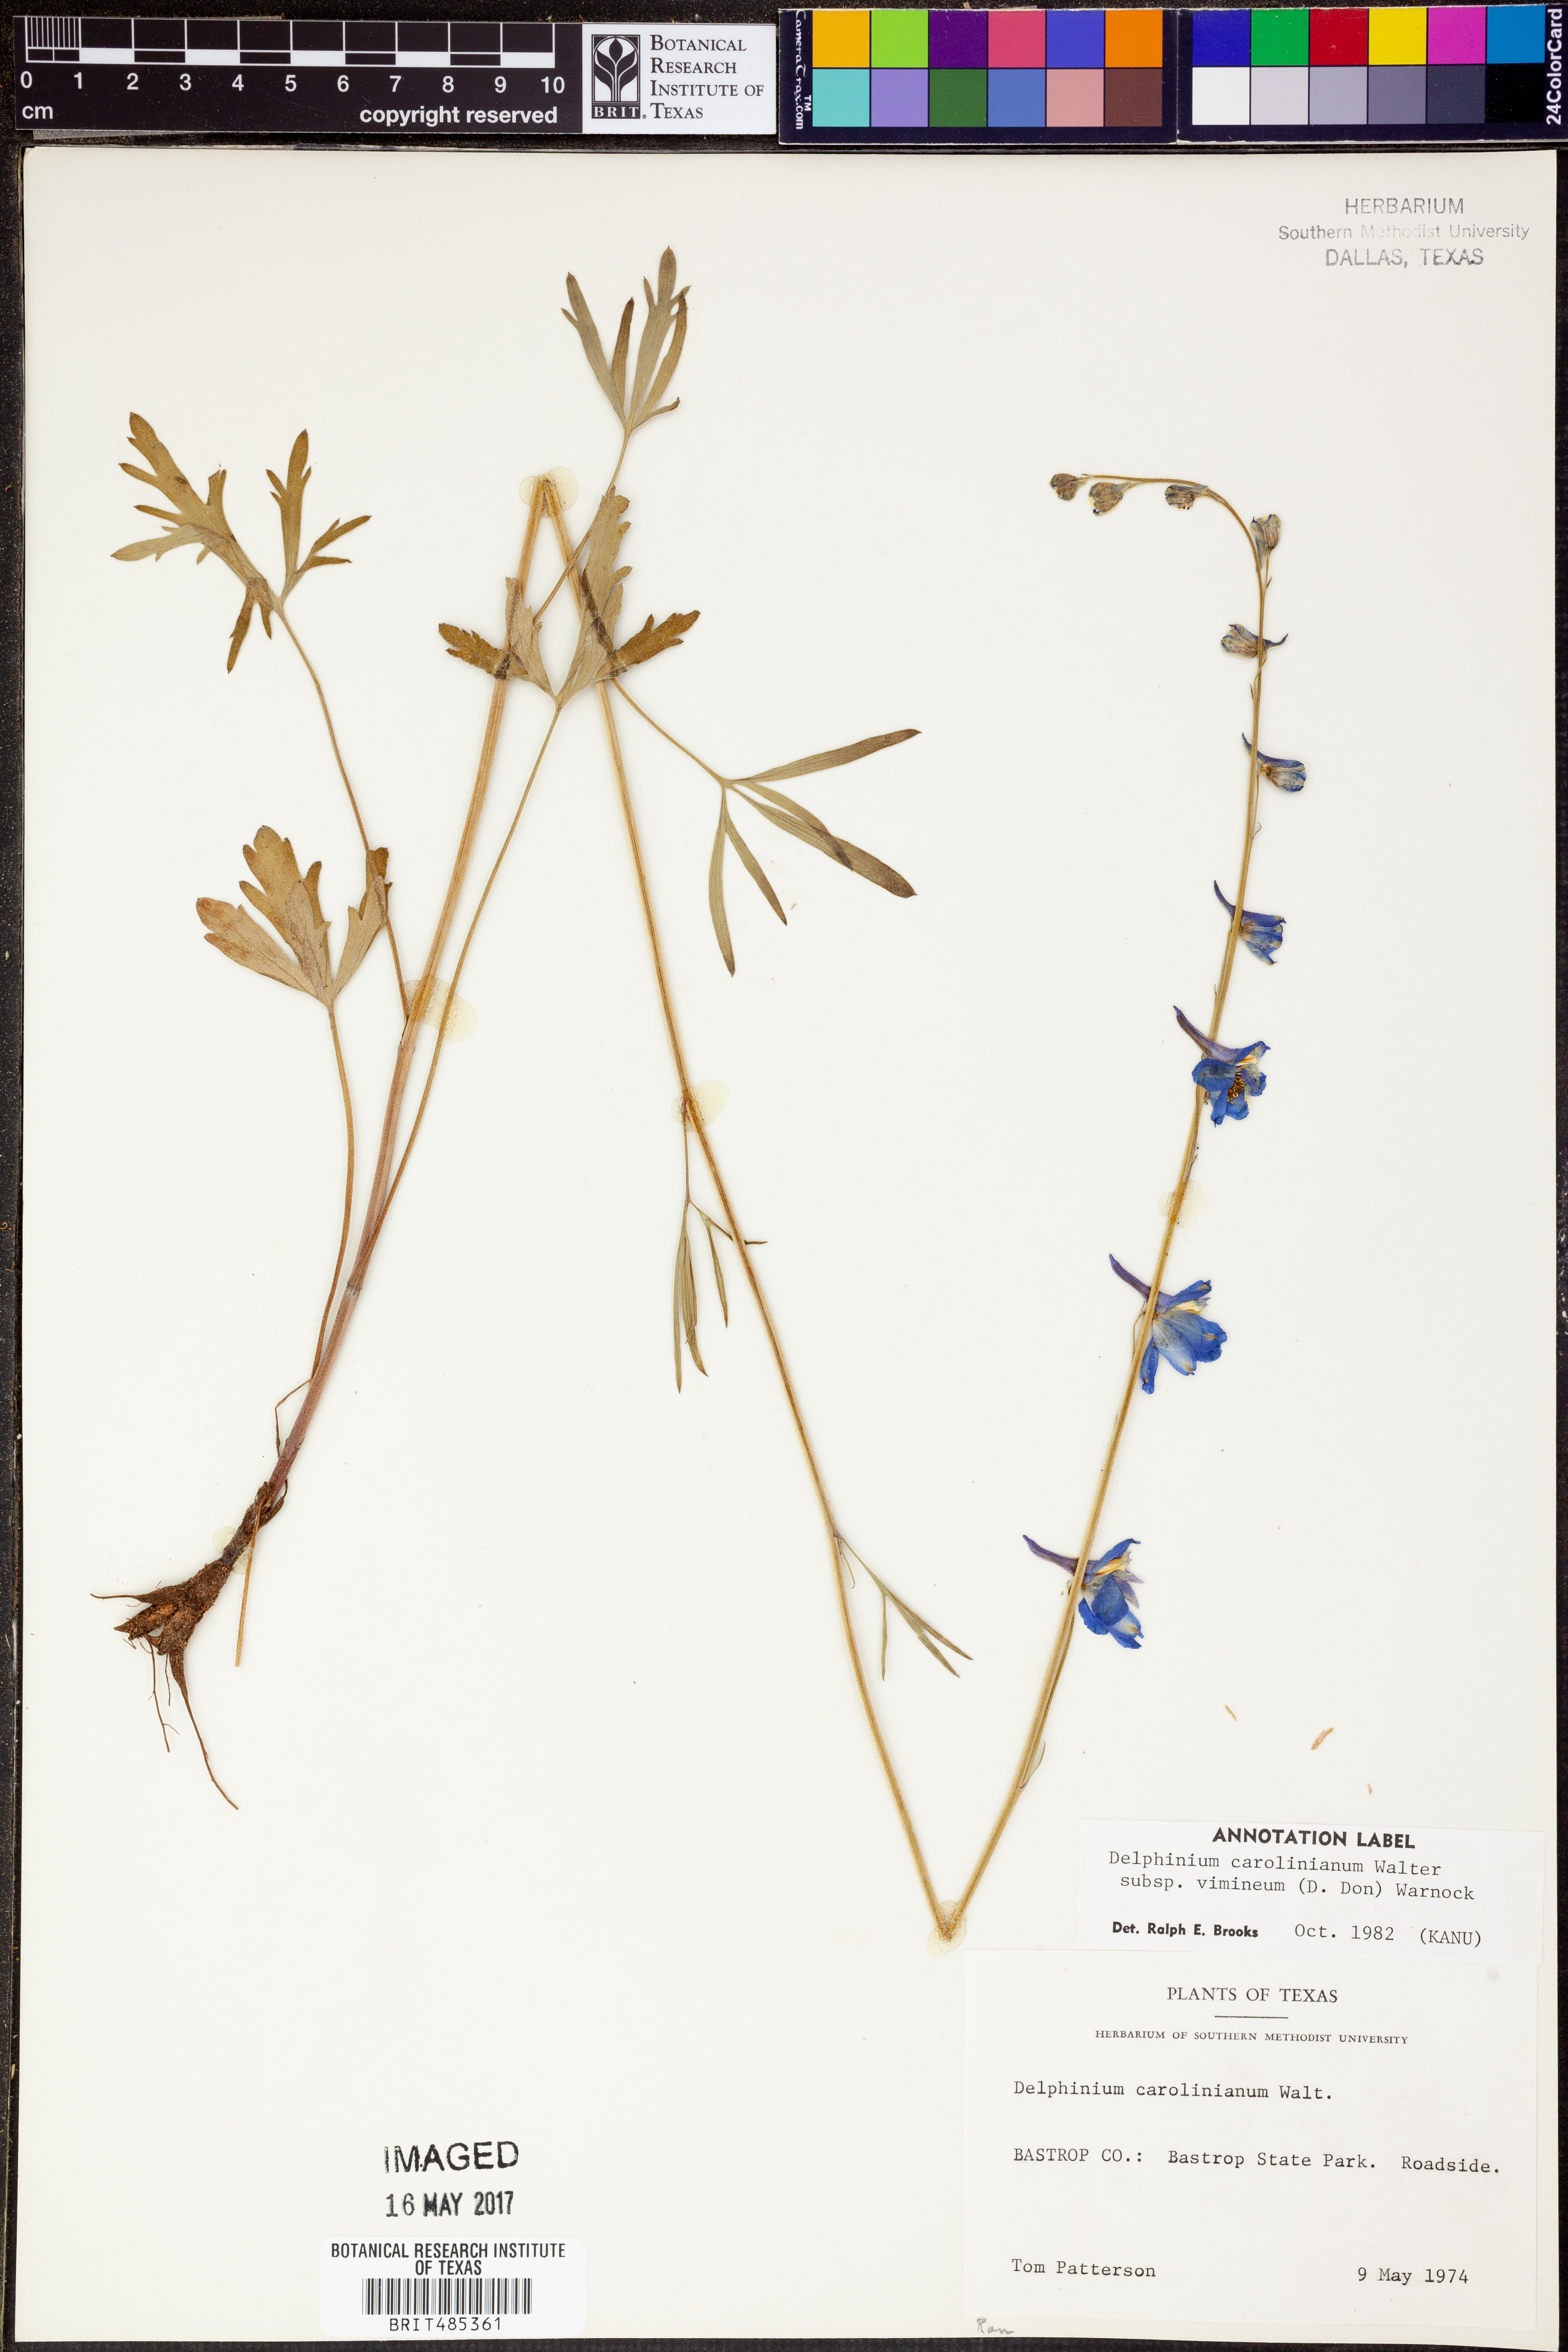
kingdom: Plantae
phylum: Tracheophyta
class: Magnoliopsida
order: Ranunculales
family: Ranunculaceae
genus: Delphinium
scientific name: Delphinium carolinianum
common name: Carolina larkspur
